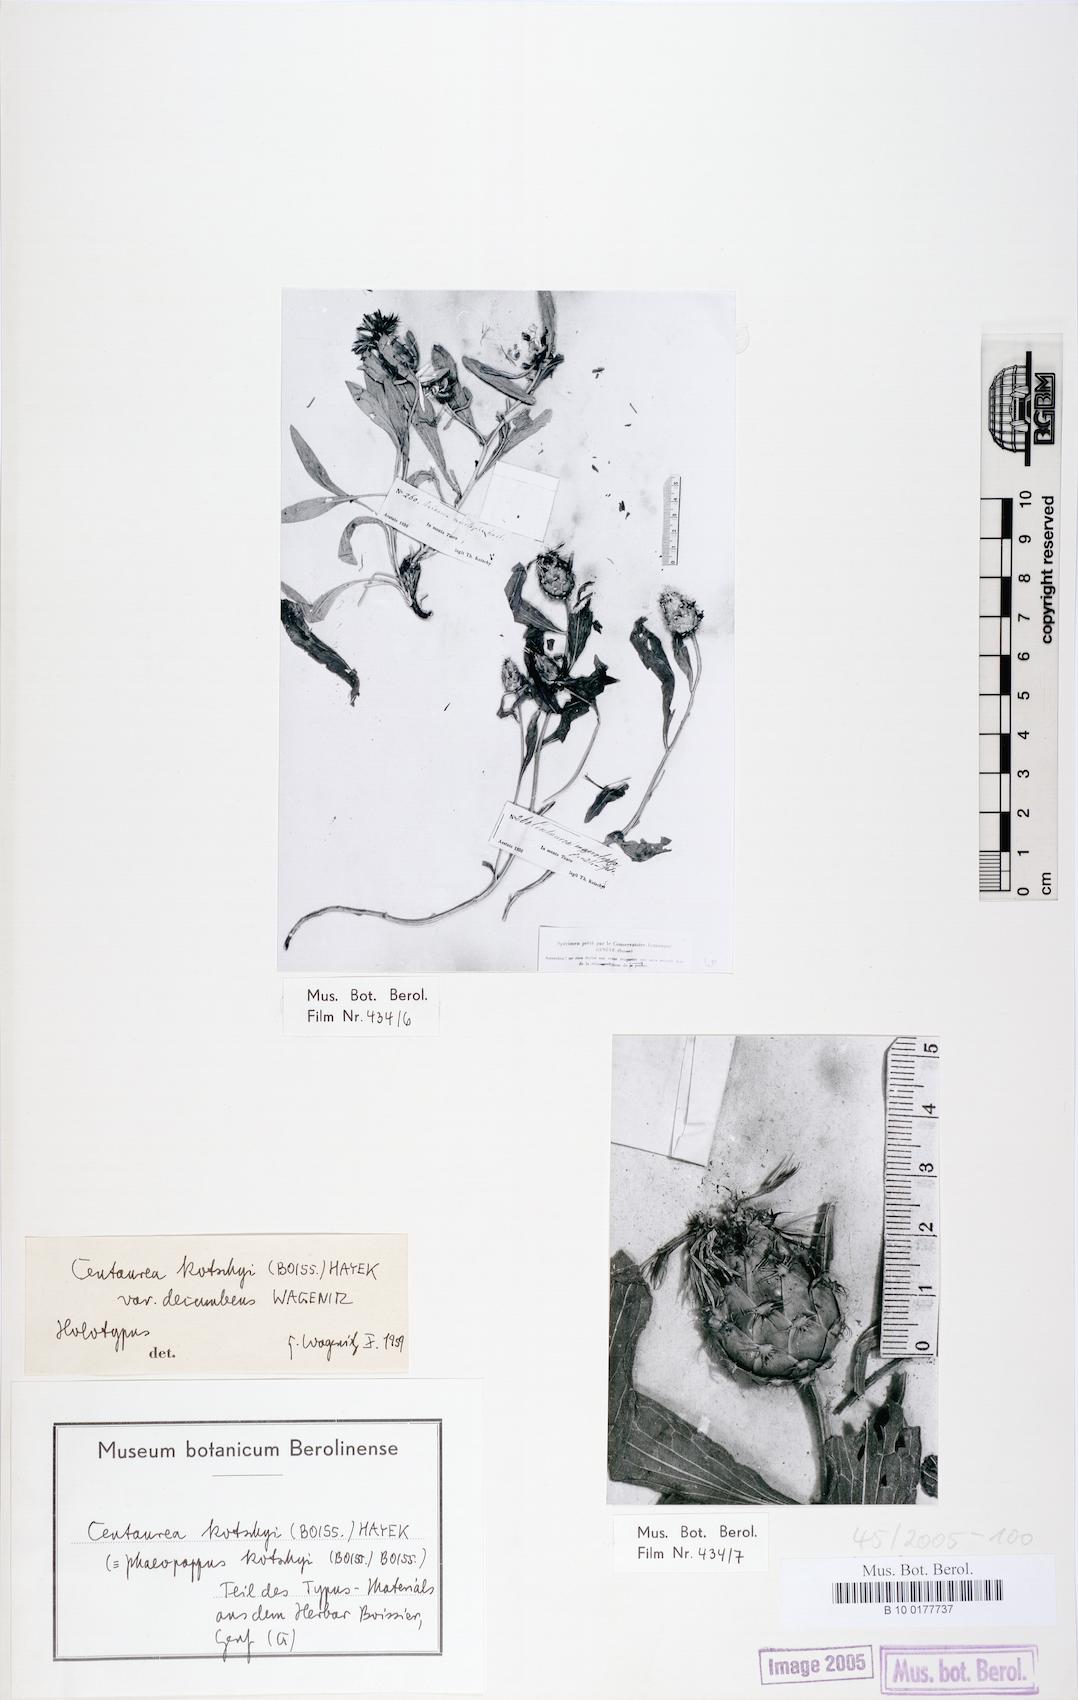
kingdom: Plantae
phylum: Tracheophyta
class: Magnoliopsida
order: Asterales
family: Asteraceae
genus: Centaurea
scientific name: Centaurea kotschyi
